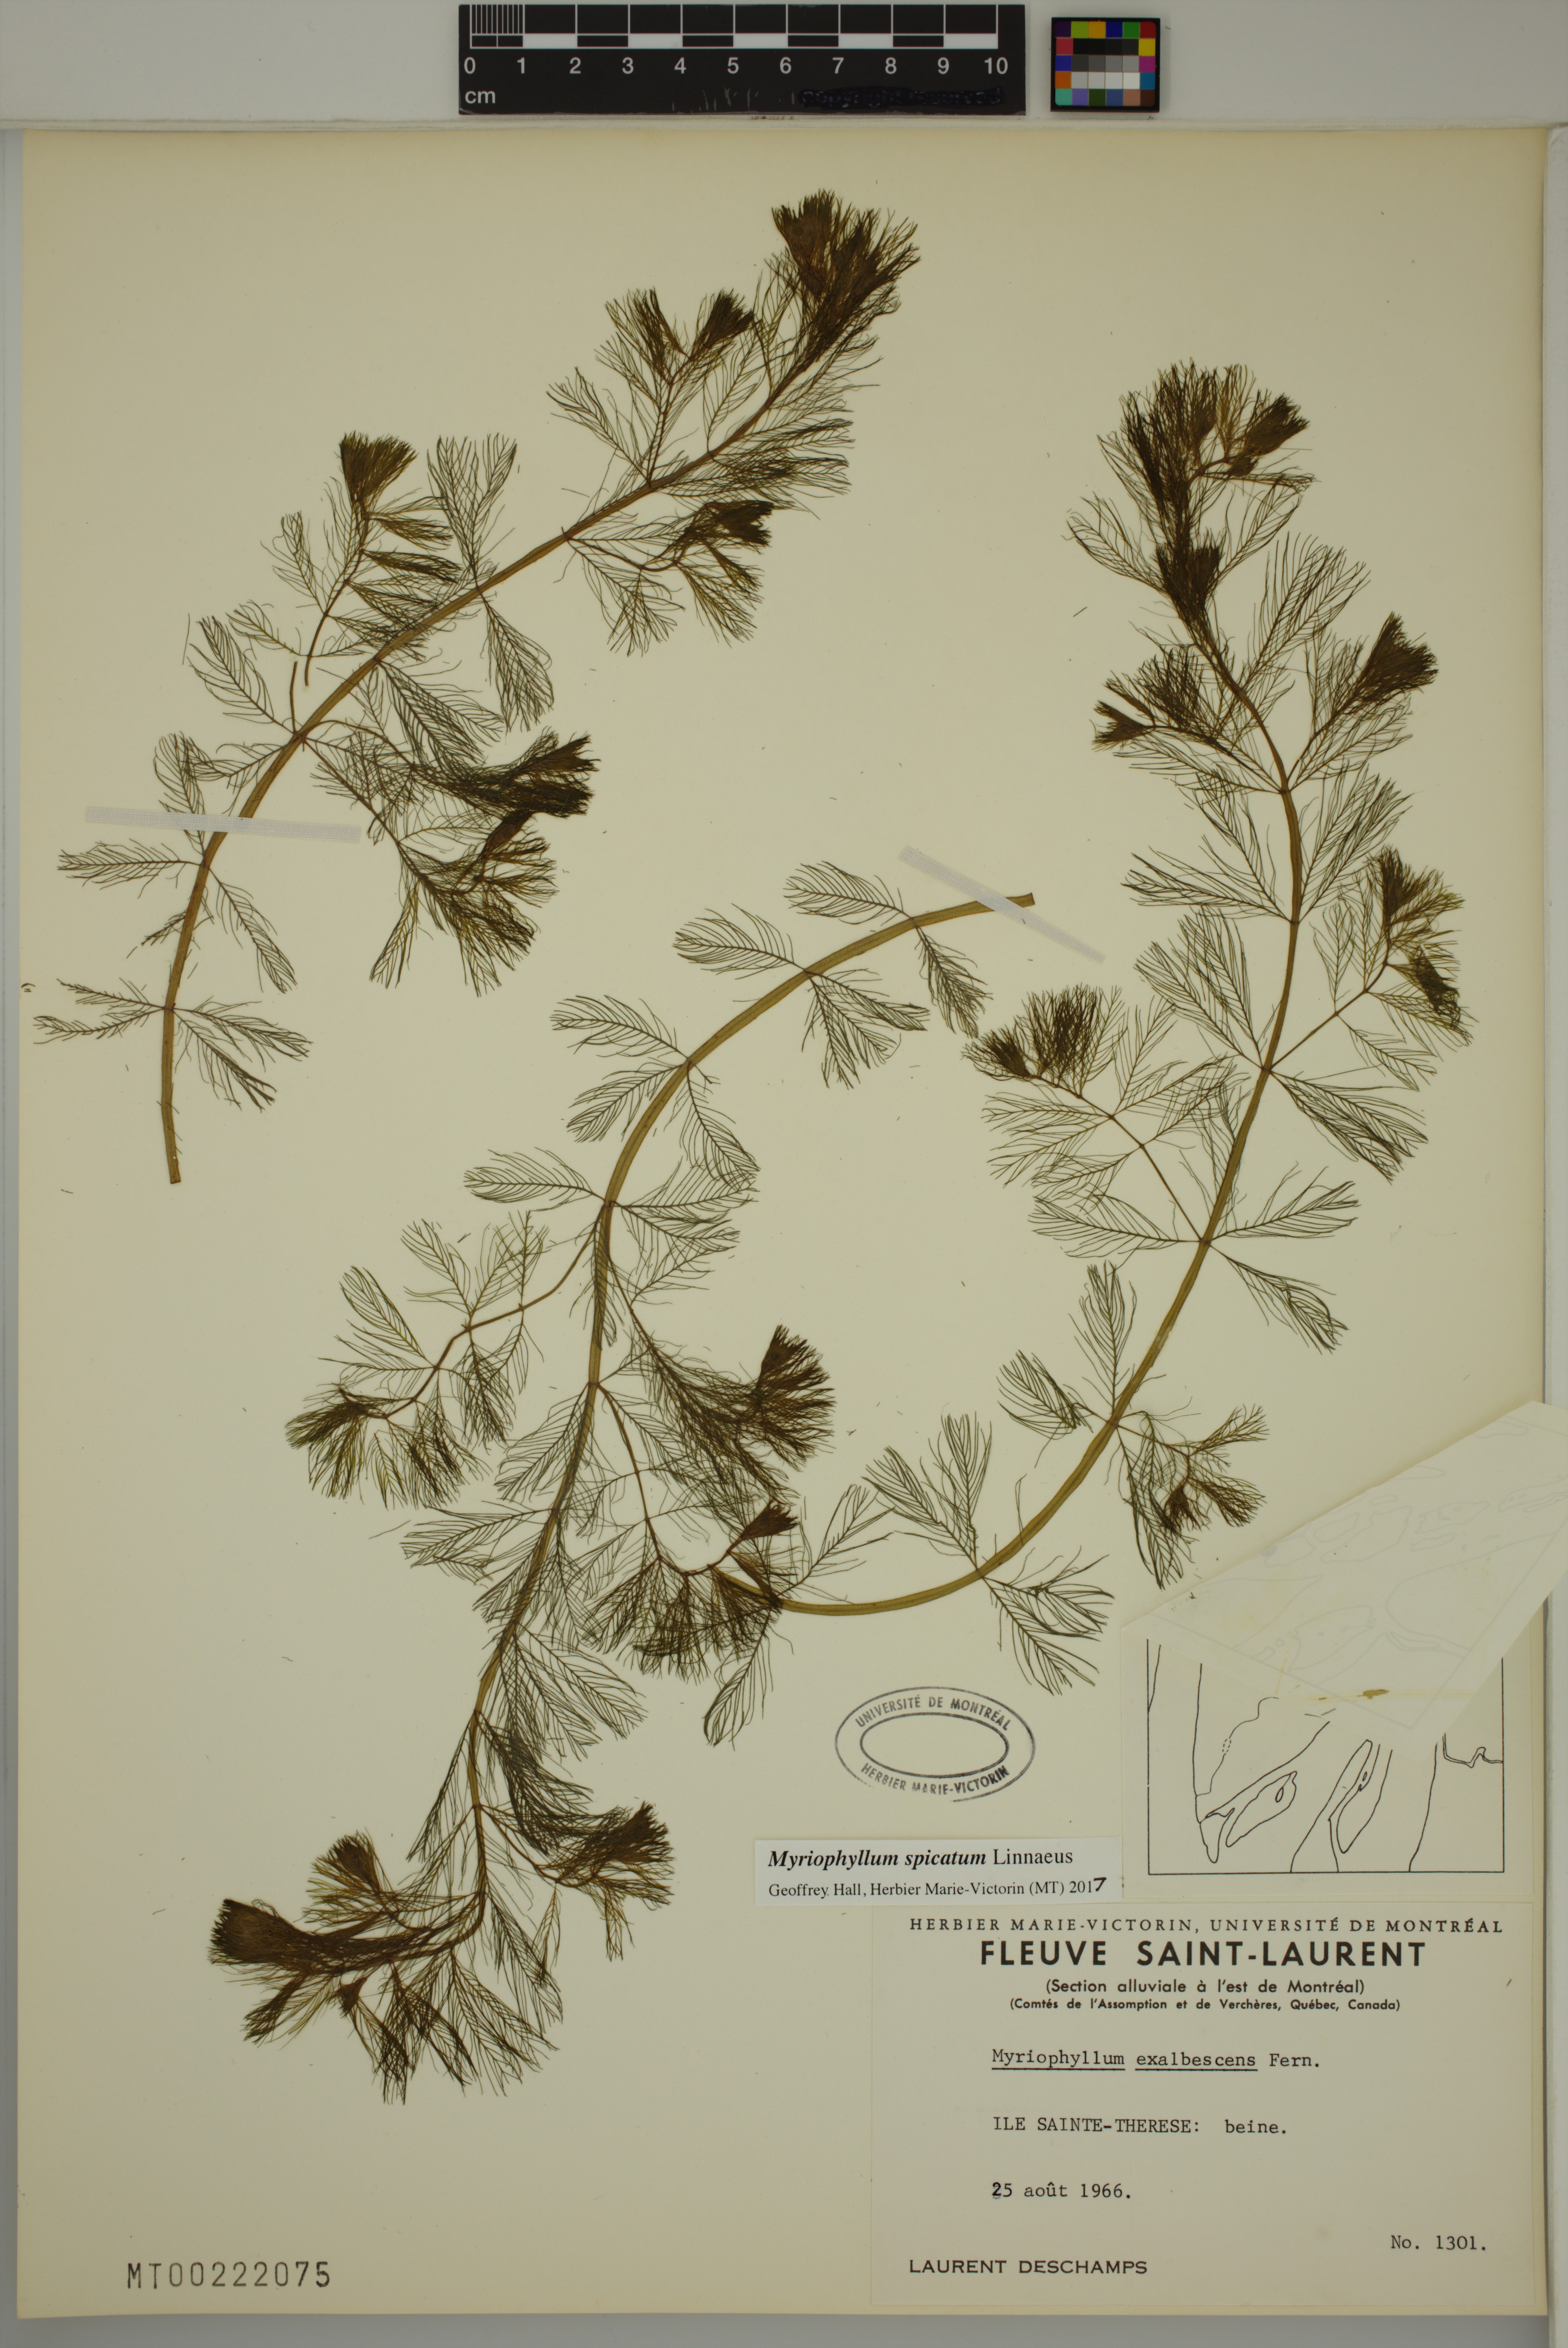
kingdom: Plantae
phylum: Tracheophyta
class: Magnoliopsida
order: Saxifragales
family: Haloragaceae
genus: Myriophyllum
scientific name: Myriophyllum spicatum
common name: Spiked water-milfoil
